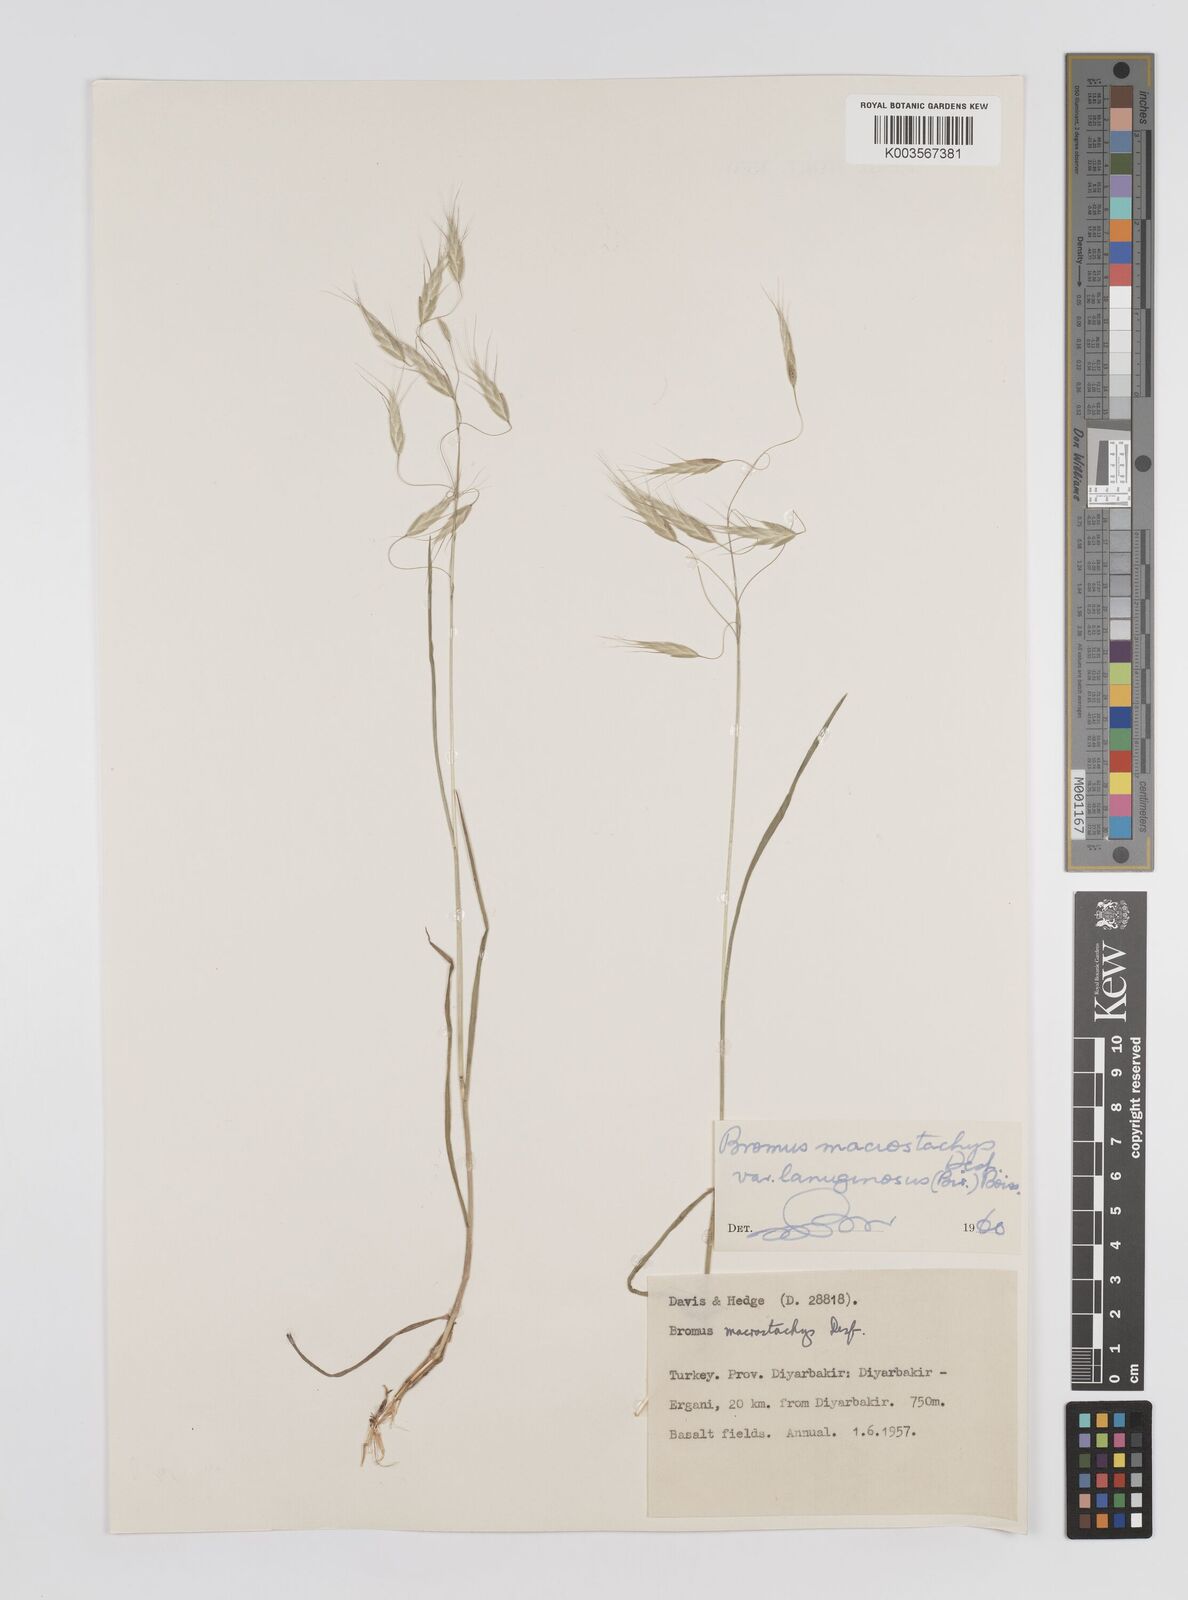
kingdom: Plantae
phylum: Tracheophyta
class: Liliopsida
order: Poales
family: Poaceae
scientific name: Poaceae
